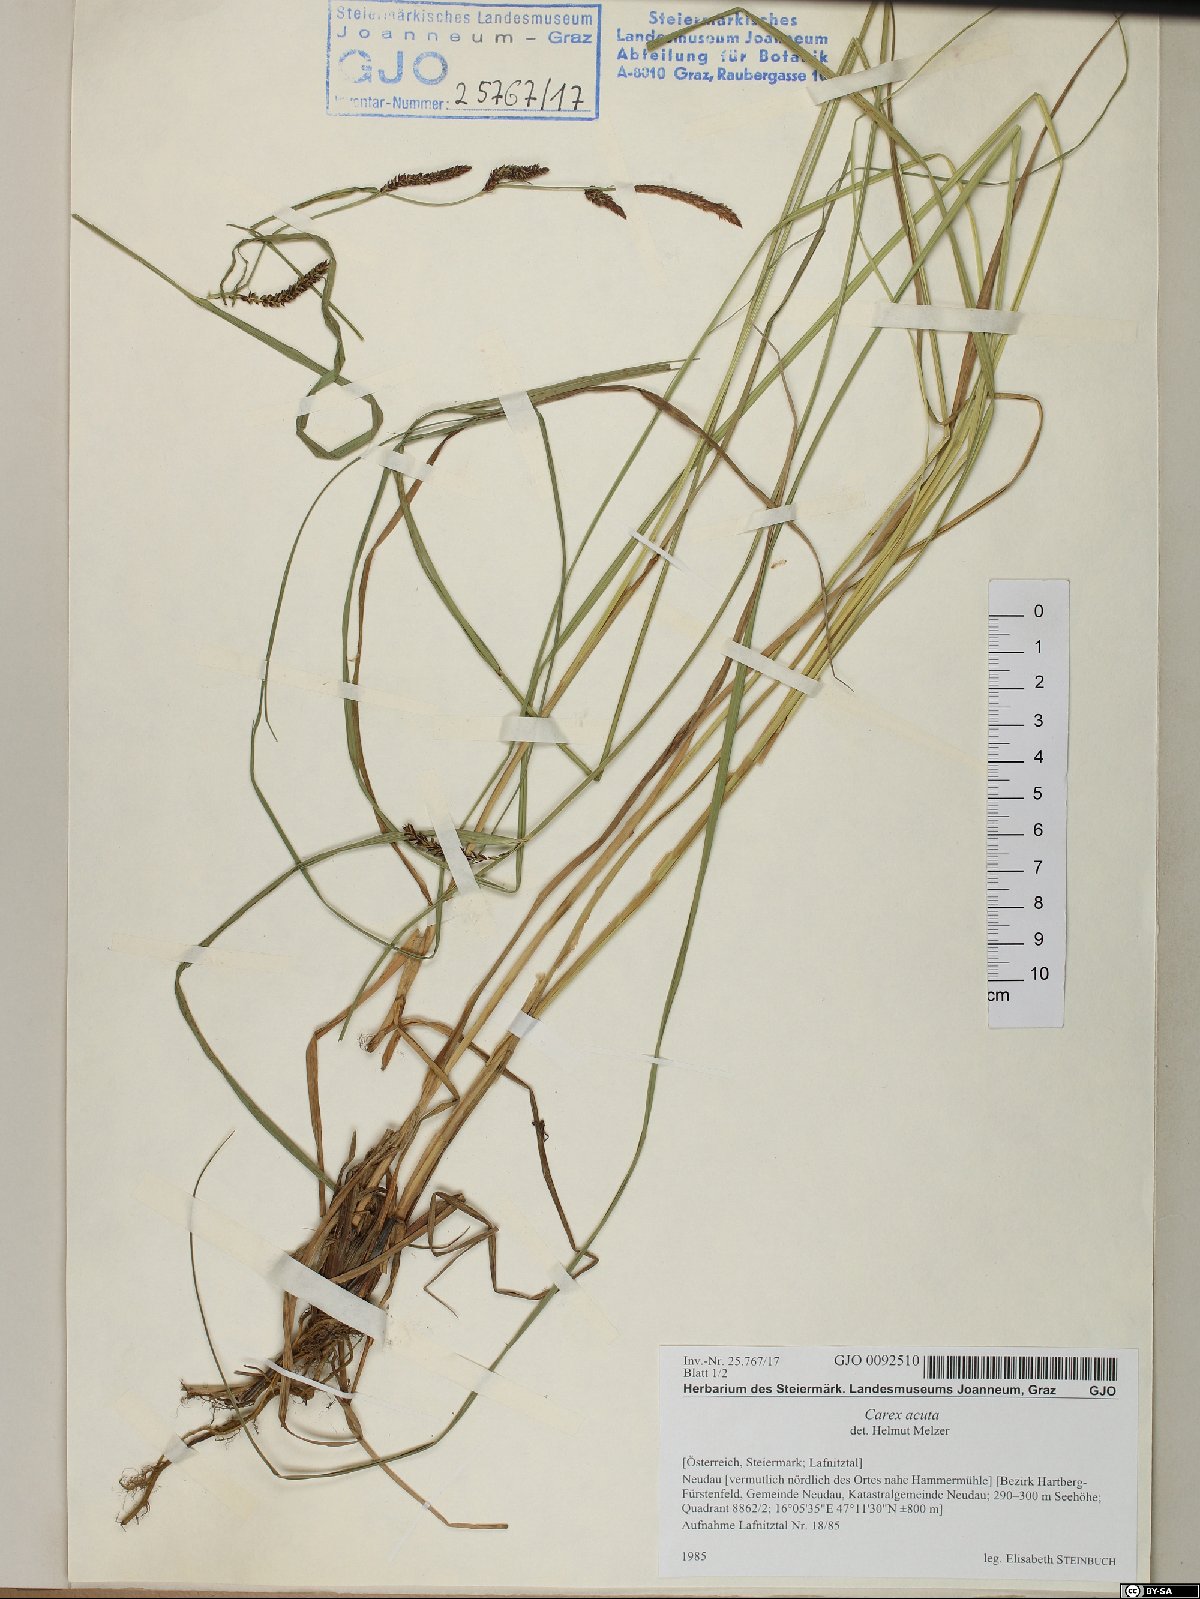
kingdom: Plantae
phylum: Tracheophyta
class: Liliopsida
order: Poales
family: Cyperaceae
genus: Carex
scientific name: Carex acuta
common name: Slender tufted-sedge
